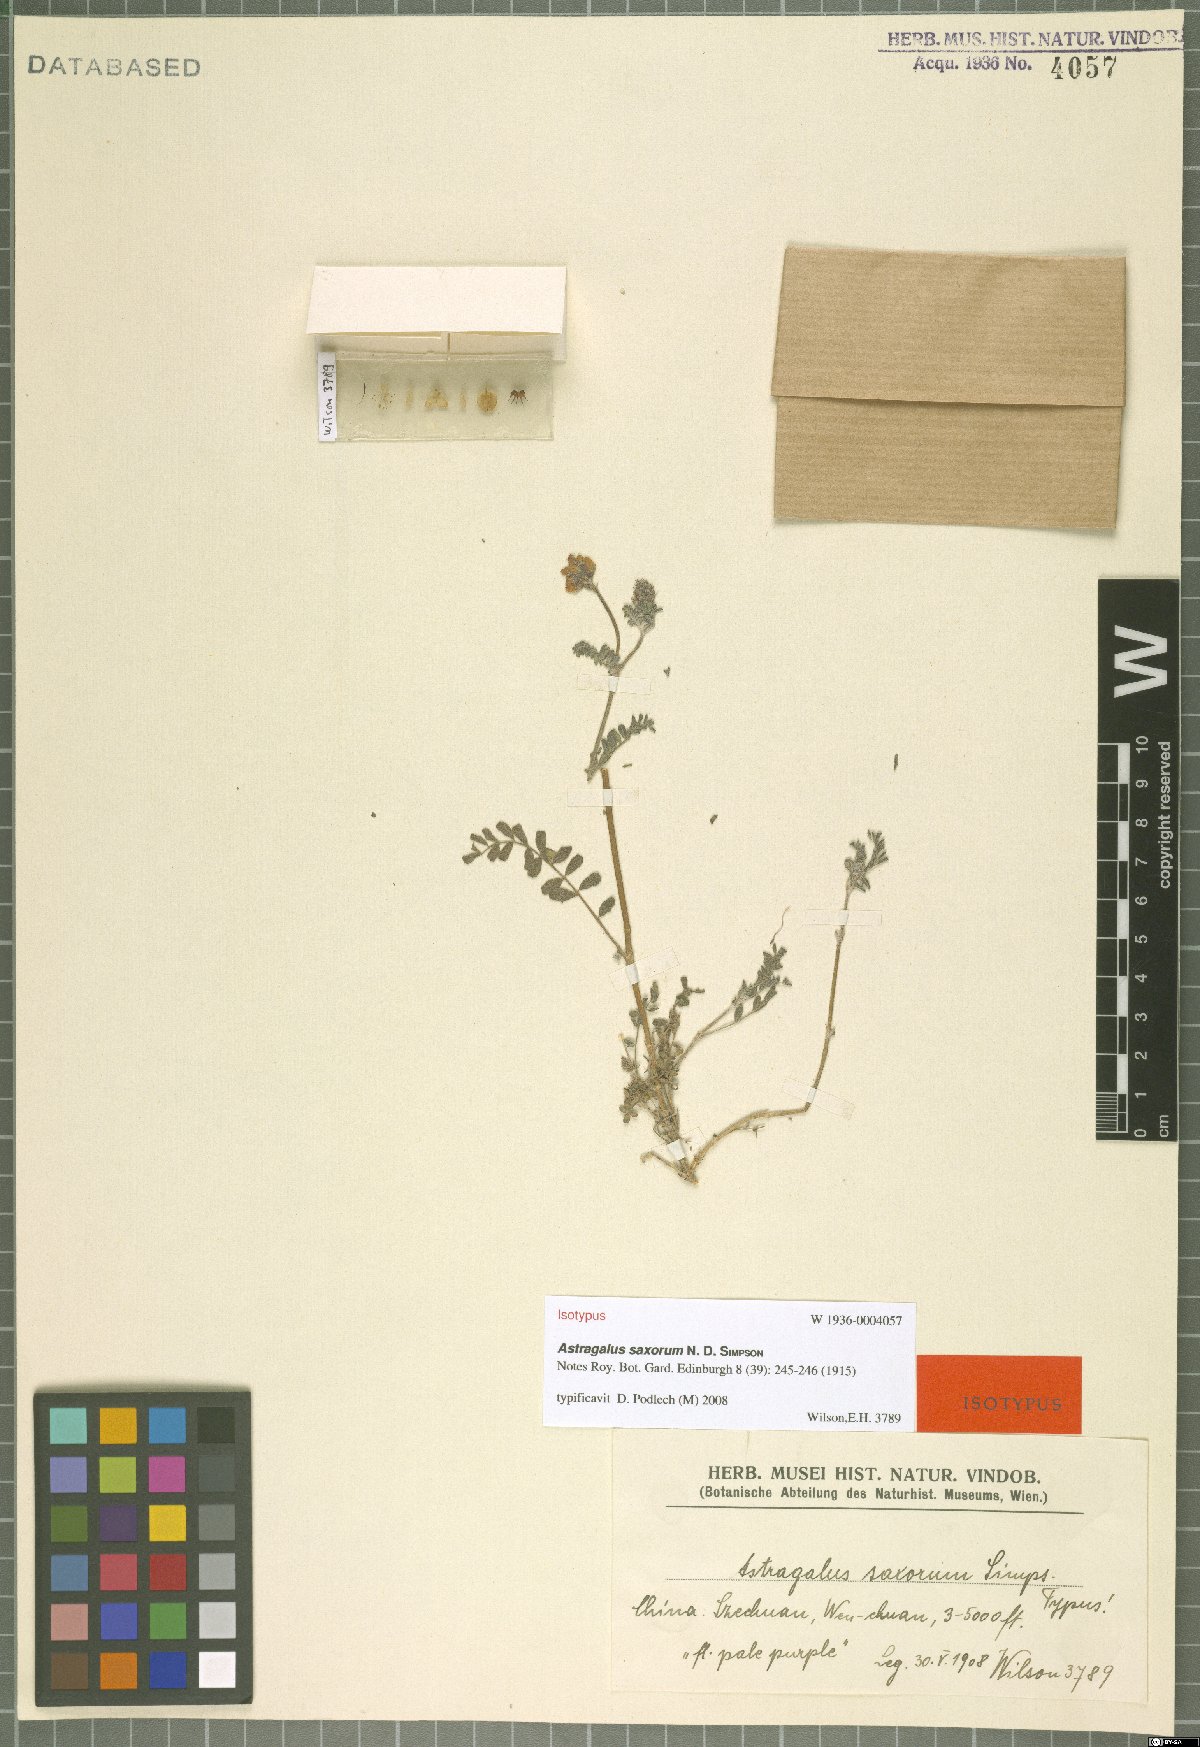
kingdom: Plantae
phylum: Tracheophyta
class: Magnoliopsida
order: Fabales
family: Fabaceae
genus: Astragalus
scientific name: Astragalus saxorum
